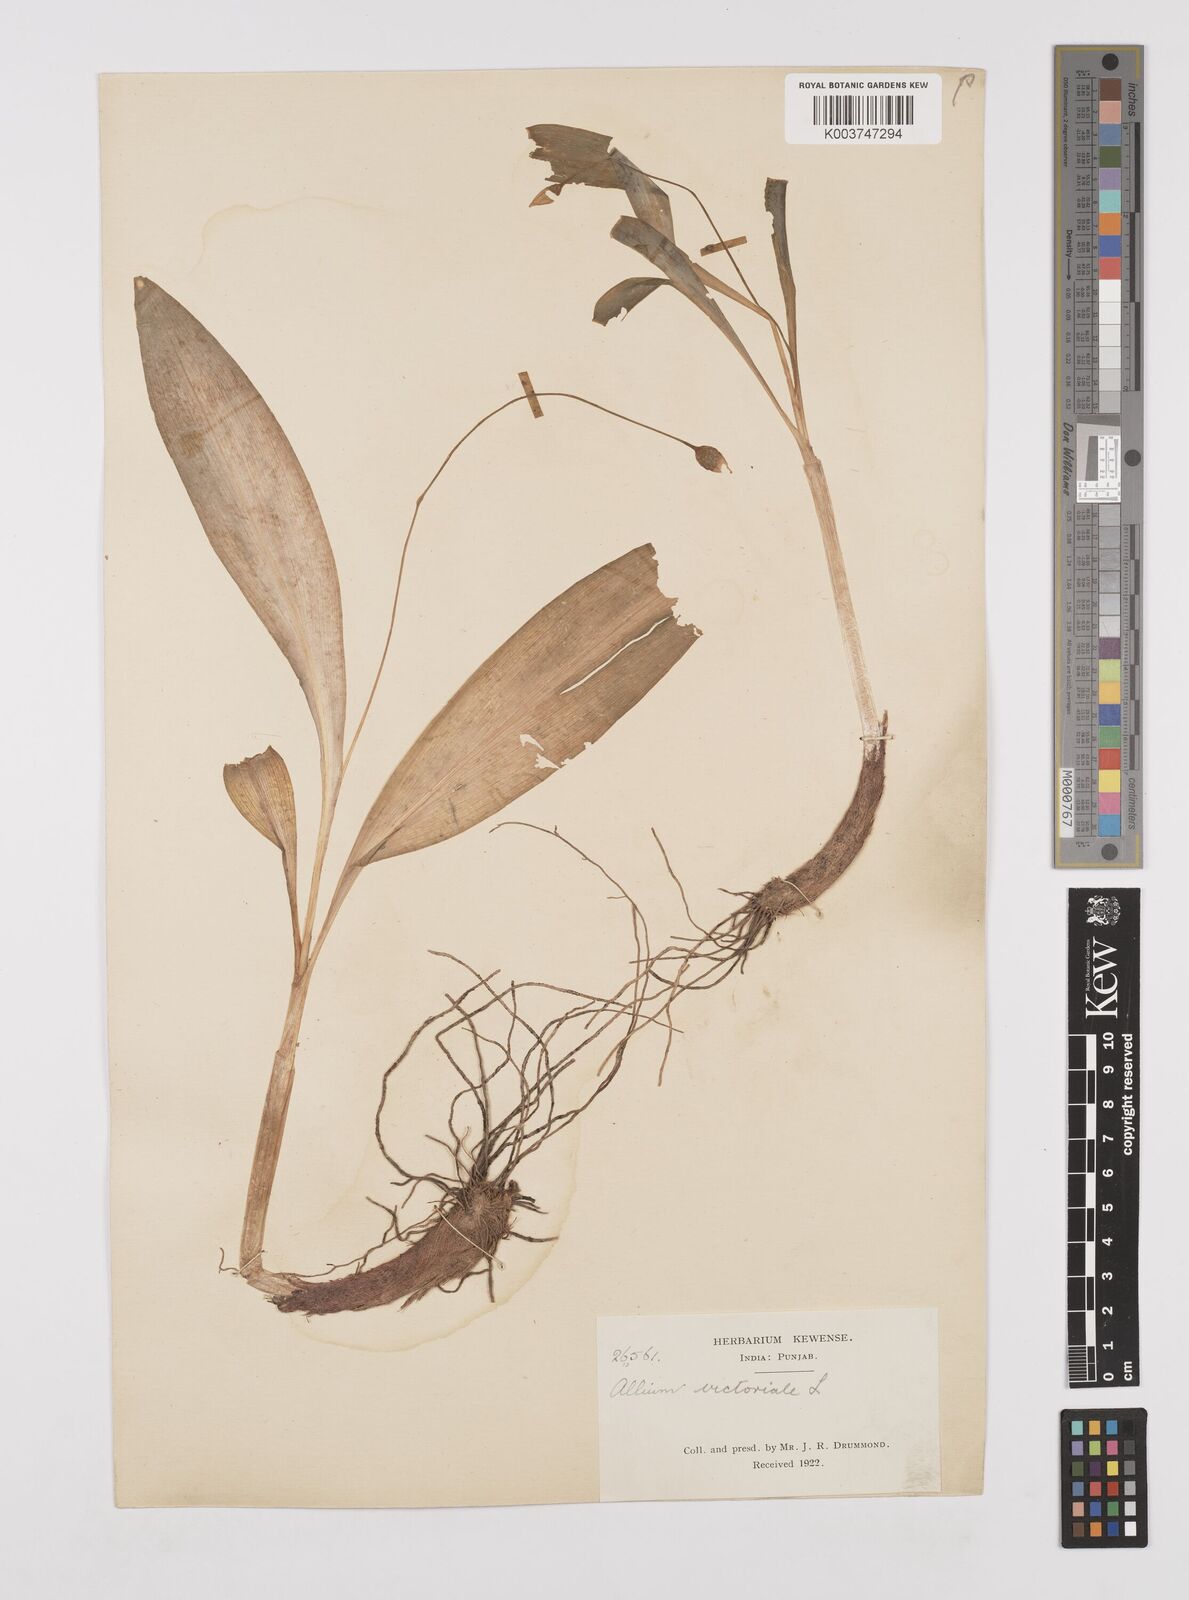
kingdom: Plantae
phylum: Tracheophyta
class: Liliopsida
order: Asparagales
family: Amaryllidaceae
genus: Allium
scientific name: Allium victorialis
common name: Alpine leek
